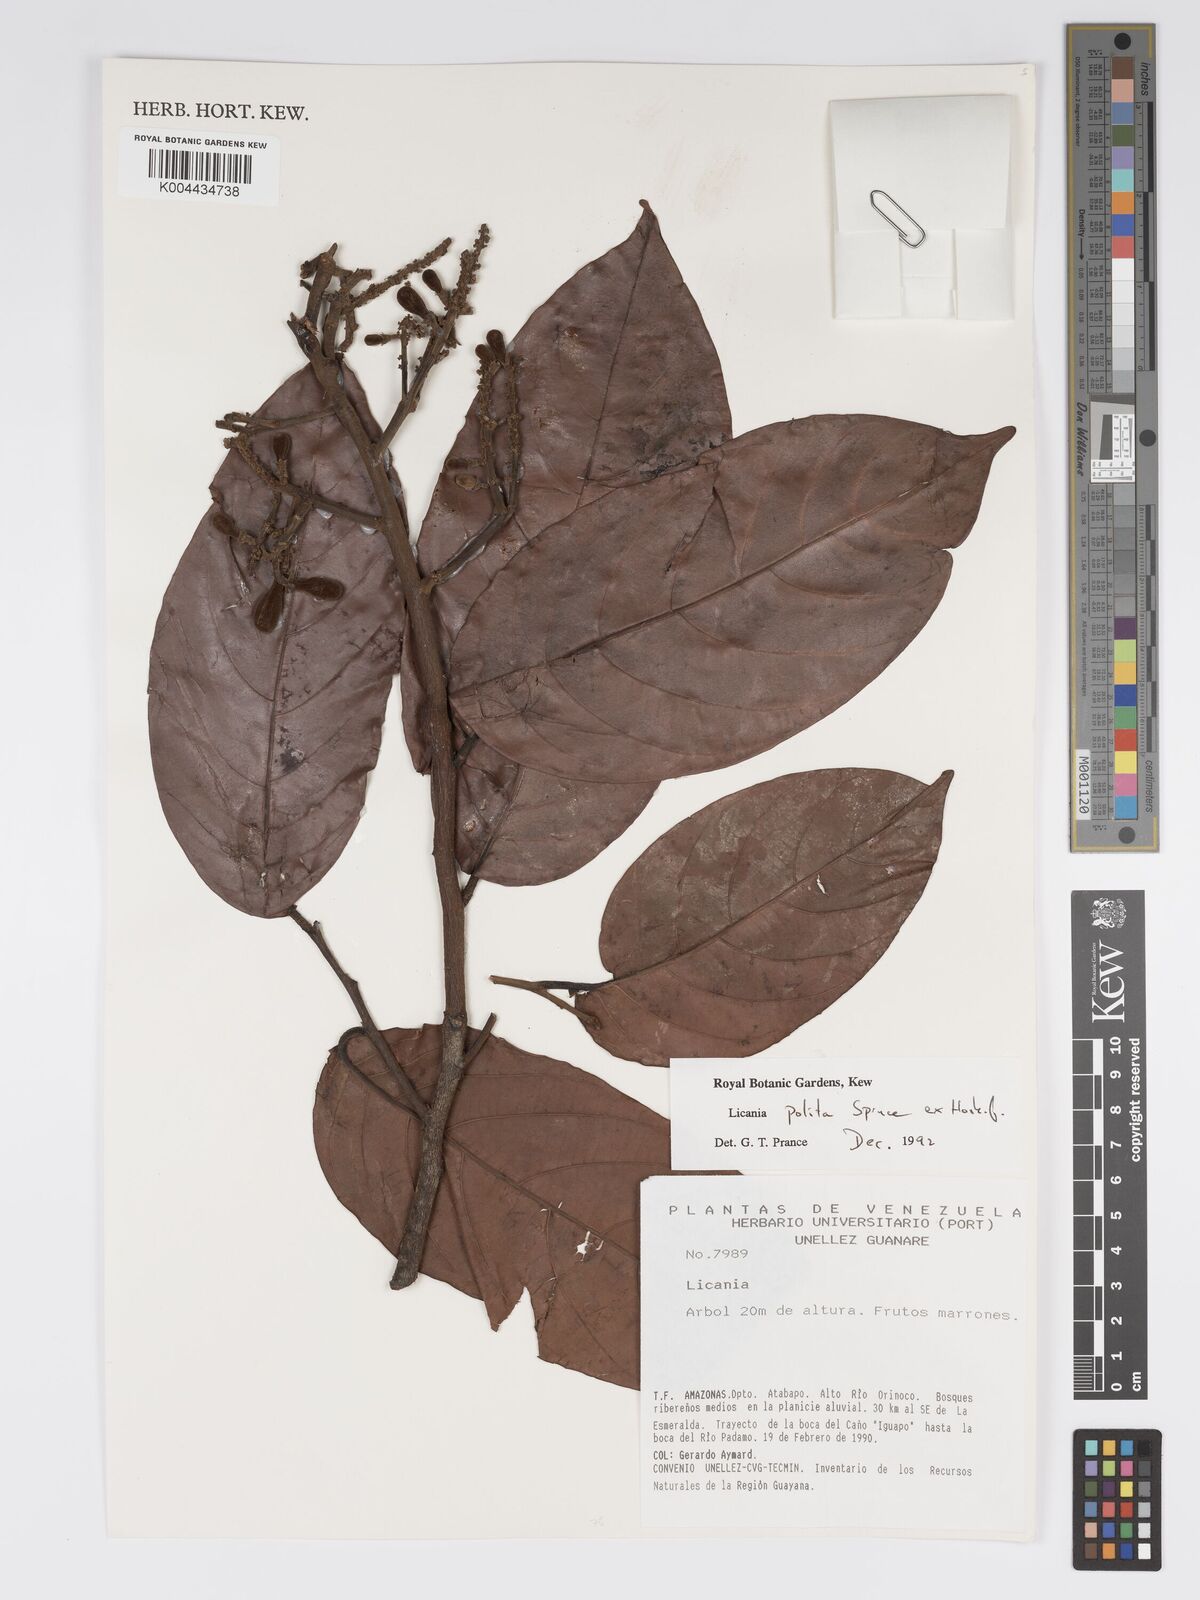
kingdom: Plantae
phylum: Tracheophyta
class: Magnoliopsida
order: Malpighiales
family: Chrysobalanaceae
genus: Licania
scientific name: Licania polita
